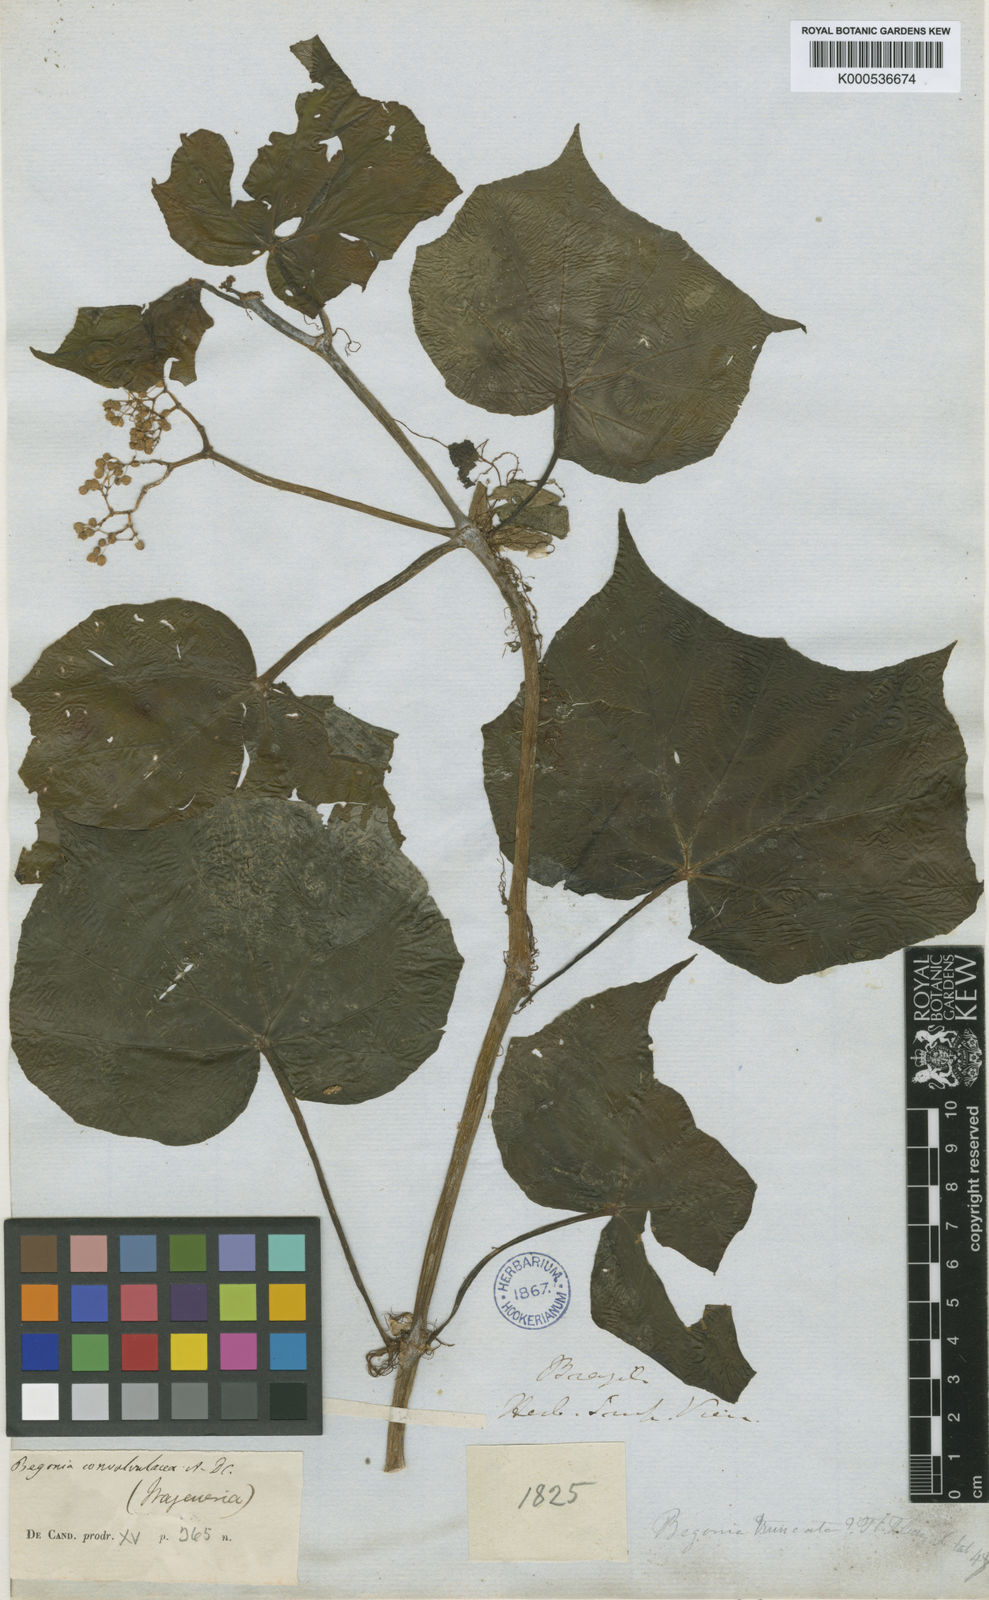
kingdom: Plantae
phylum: Tracheophyta
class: Magnoliopsida
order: Cucurbitales
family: Begoniaceae
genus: Begonia
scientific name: Begonia convolvulacea
